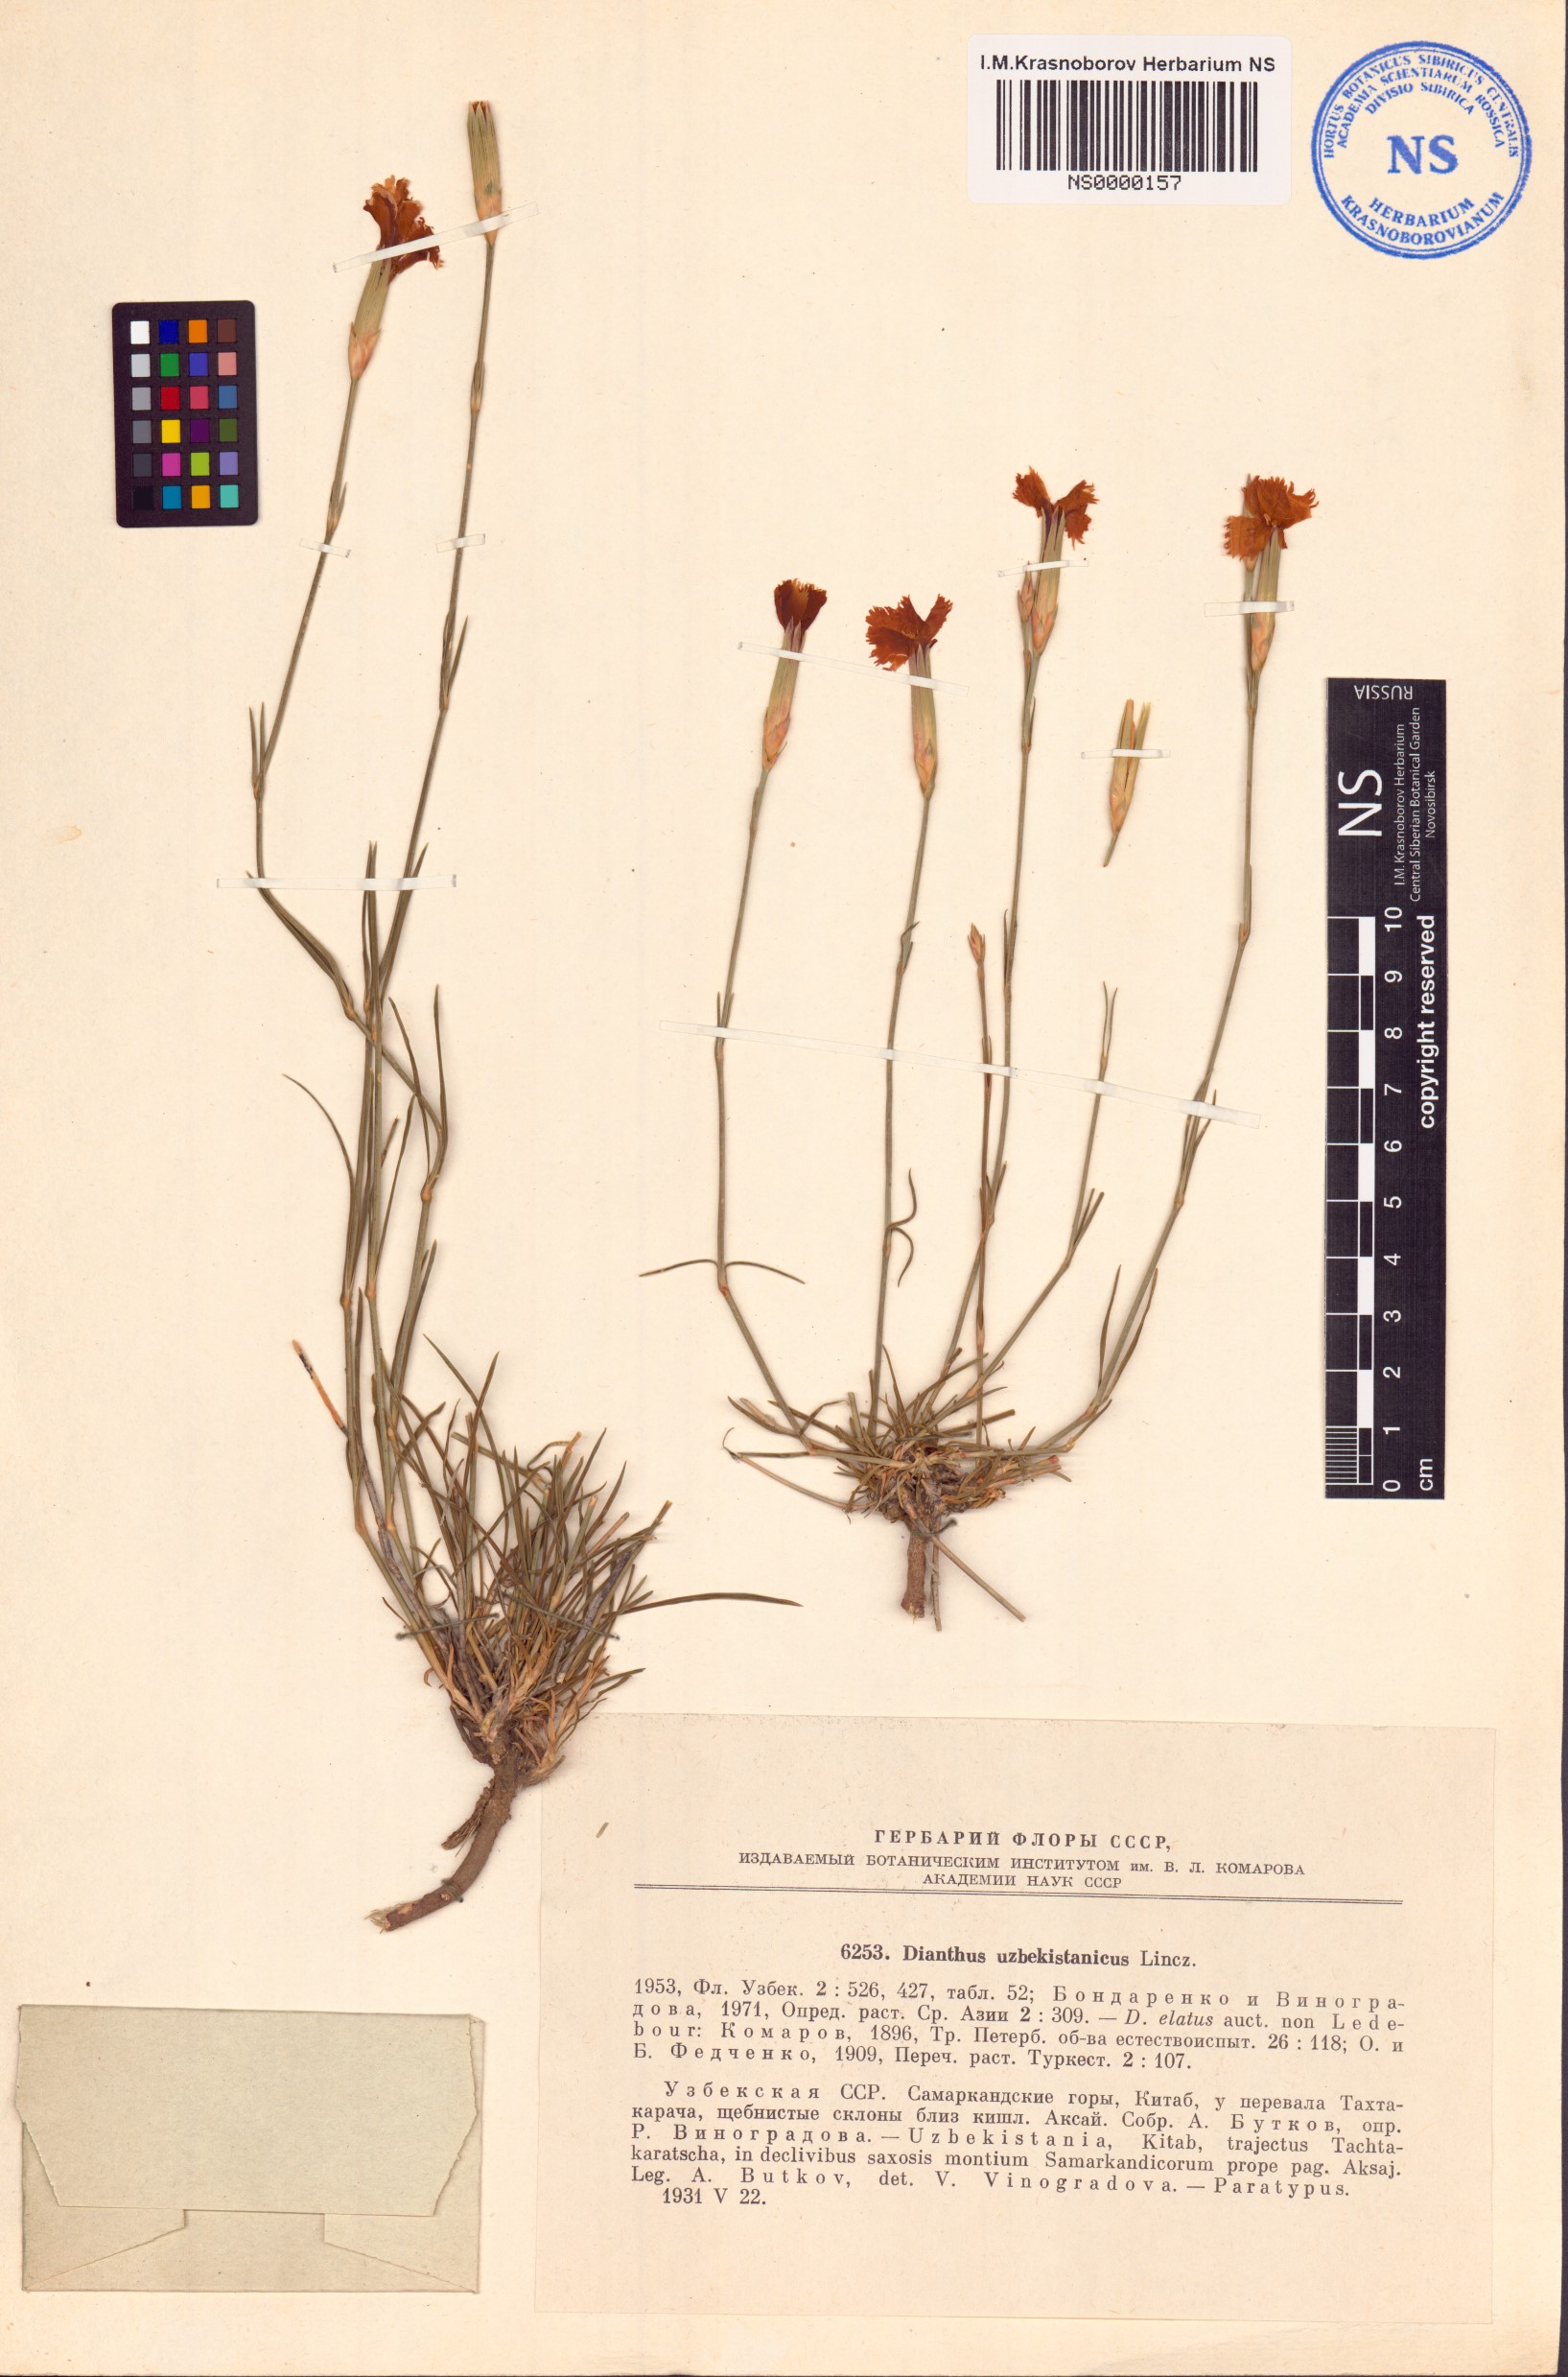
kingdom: Plantae
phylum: Tracheophyta
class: Magnoliopsida
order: Caryophyllales
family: Caryophyllaceae
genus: Dianthus
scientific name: Dianthus uzbekistanicus
